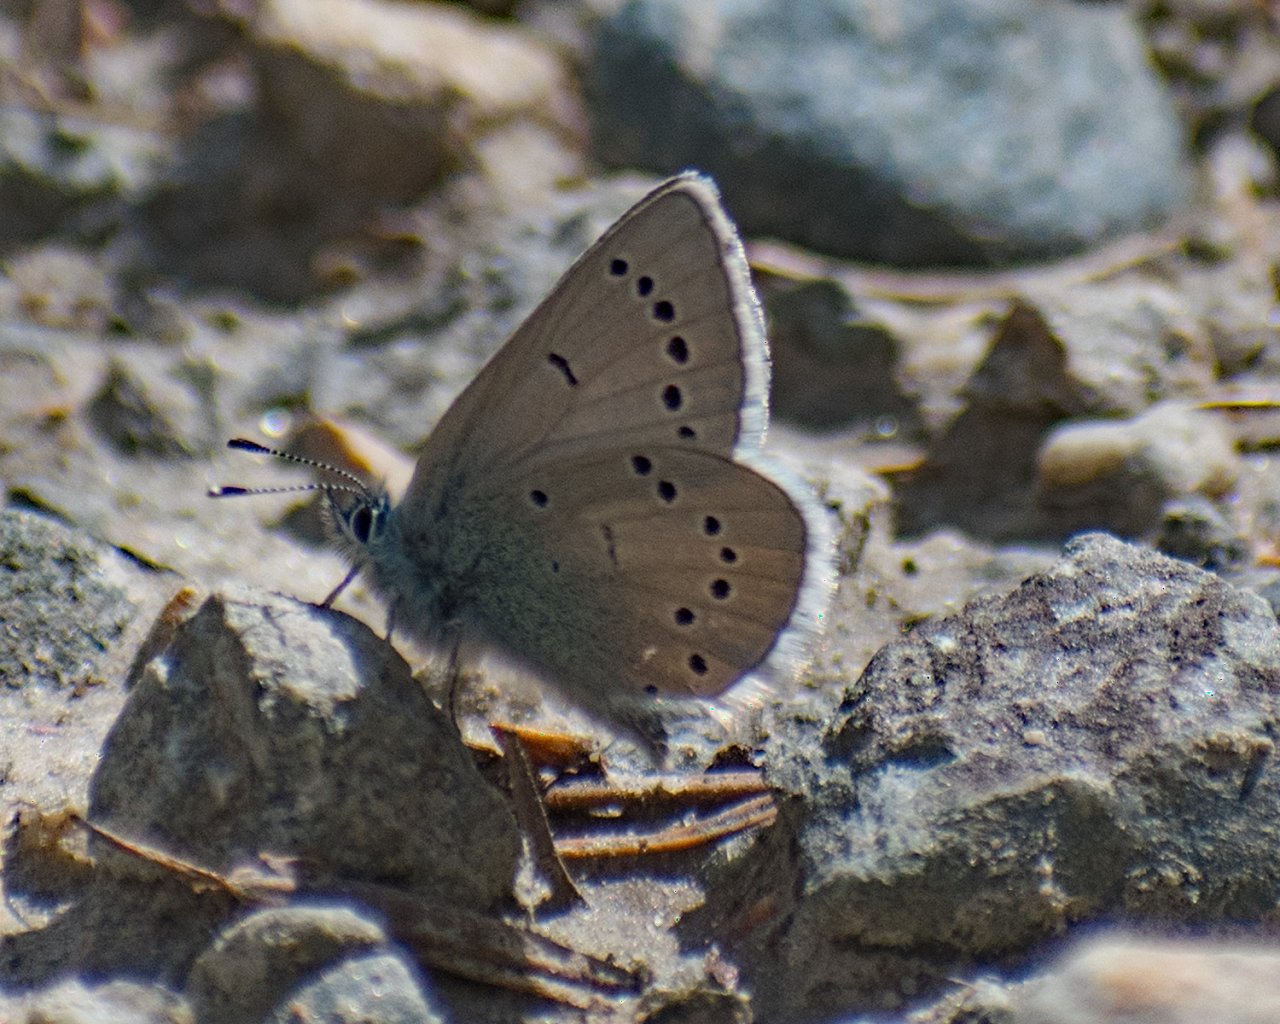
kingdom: Animalia
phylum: Arthropoda
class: Insecta
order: Lepidoptera
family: Lycaenidae
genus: Glaucopsyche
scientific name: Glaucopsyche lygdamus
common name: Silvery Blue
